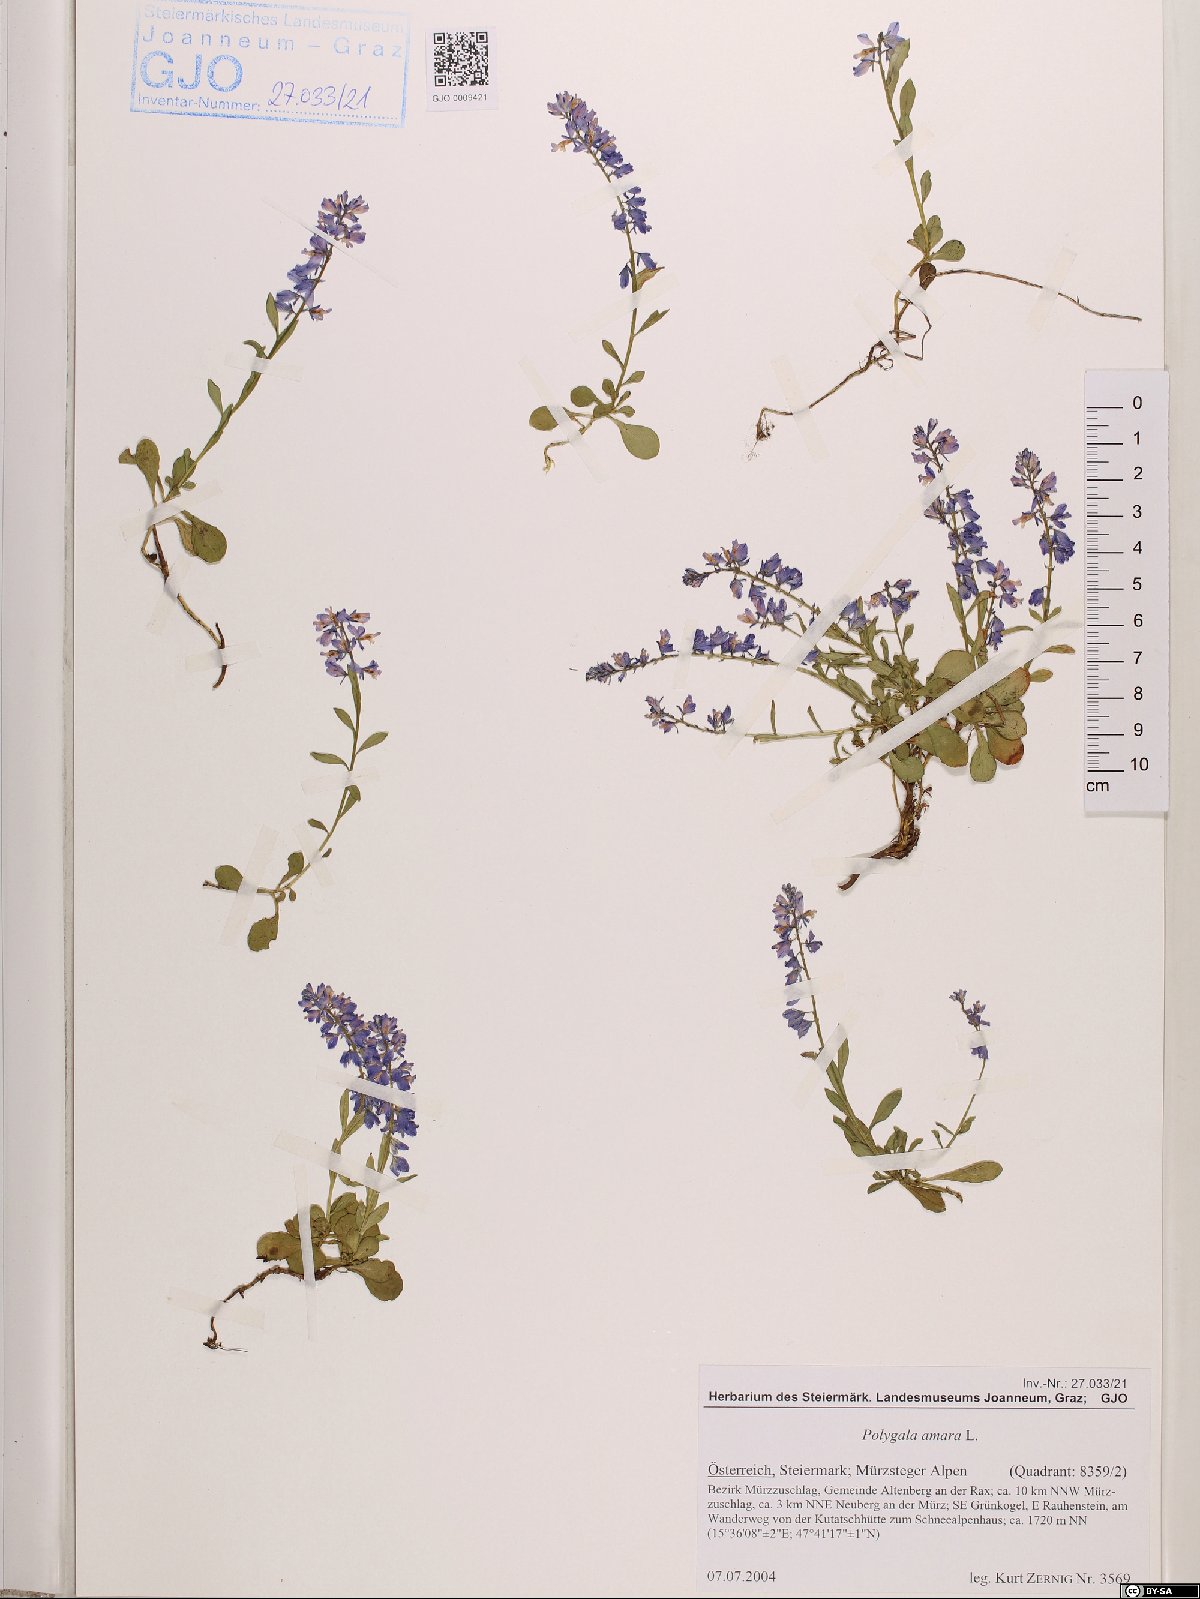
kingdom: Plantae
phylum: Tracheophyta
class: Magnoliopsida
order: Fabales
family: Polygalaceae
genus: Polygala
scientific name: Polygala amara
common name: Milkwort
